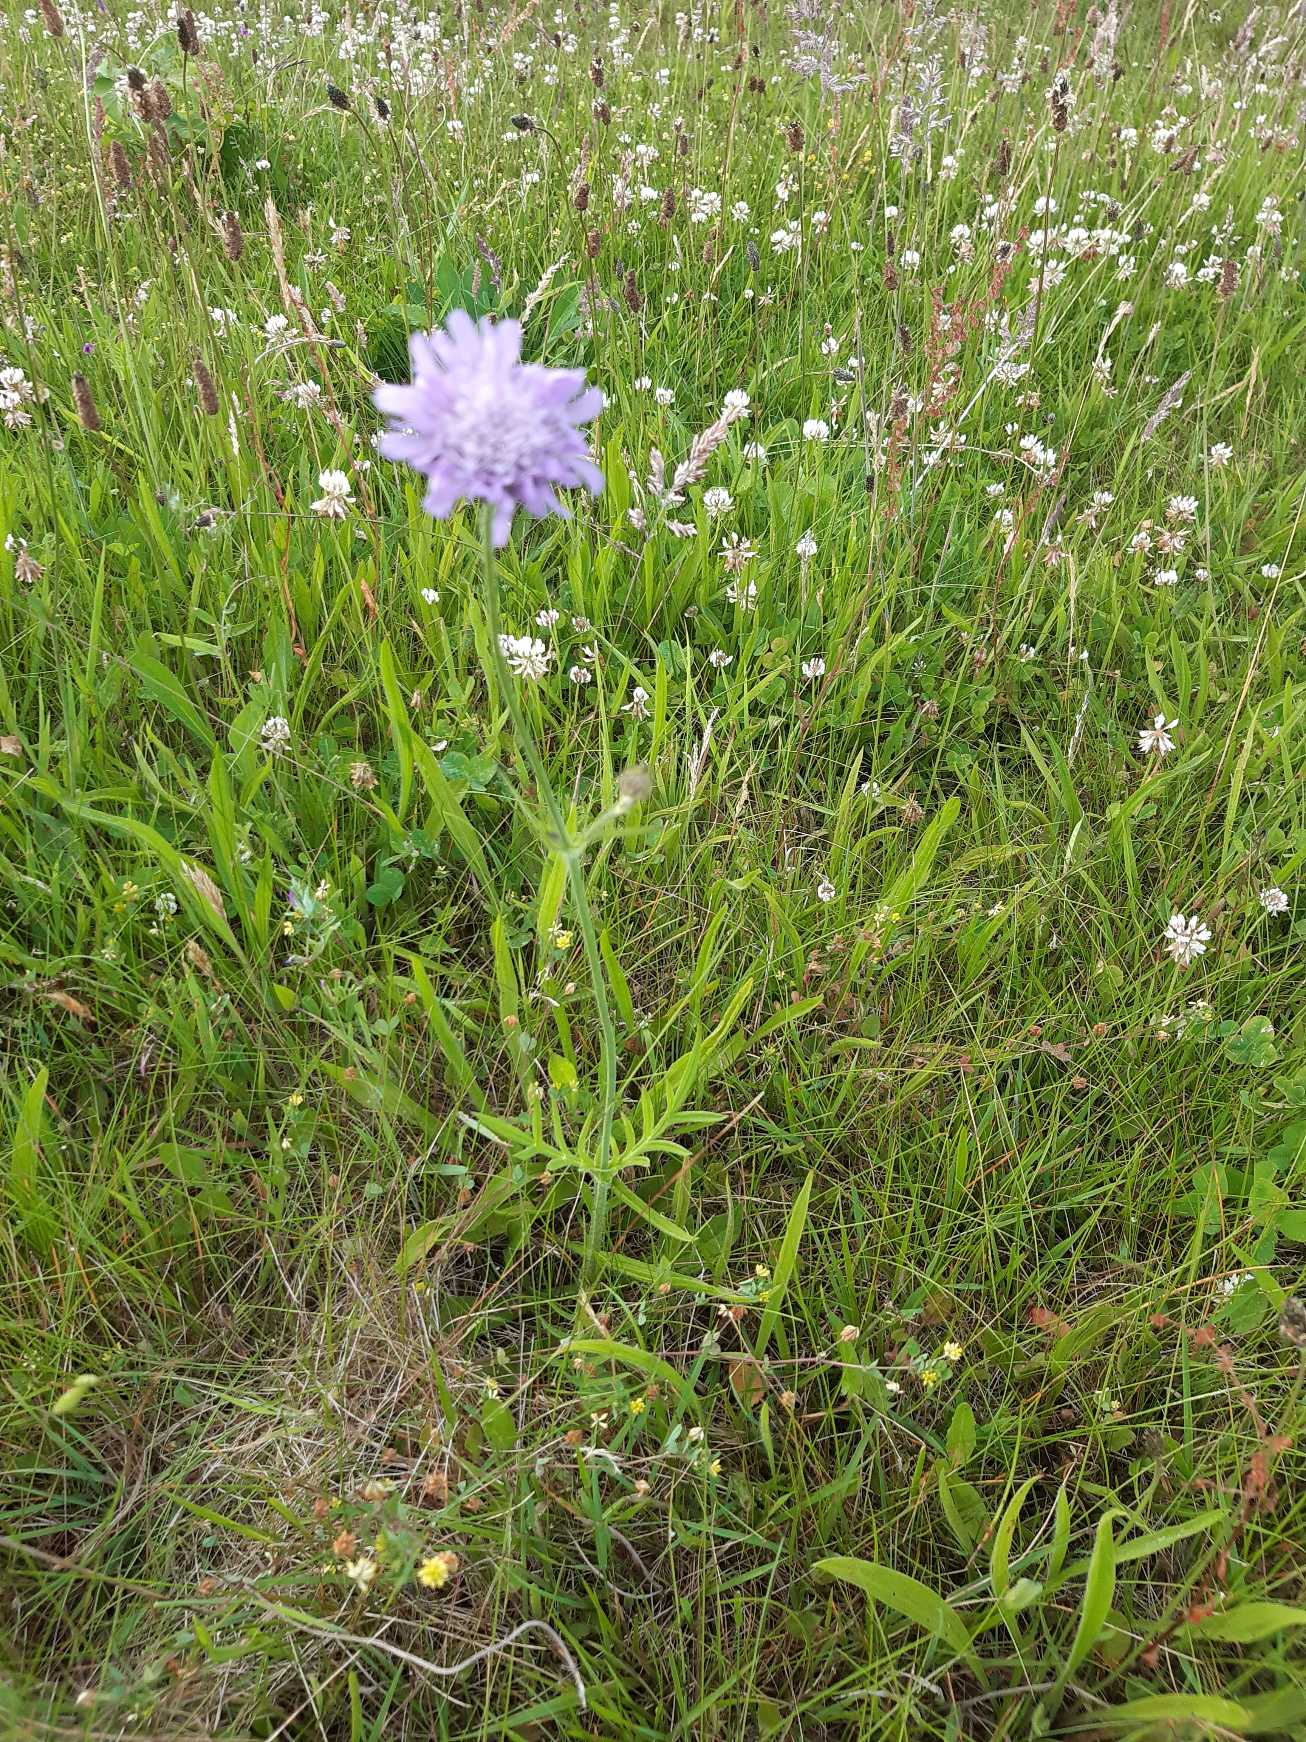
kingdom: Plantae
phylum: Tracheophyta
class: Magnoliopsida
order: Dipsacales
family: Caprifoliaceae
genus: Knautia
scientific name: Knautia arvensis
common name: Blåhat
